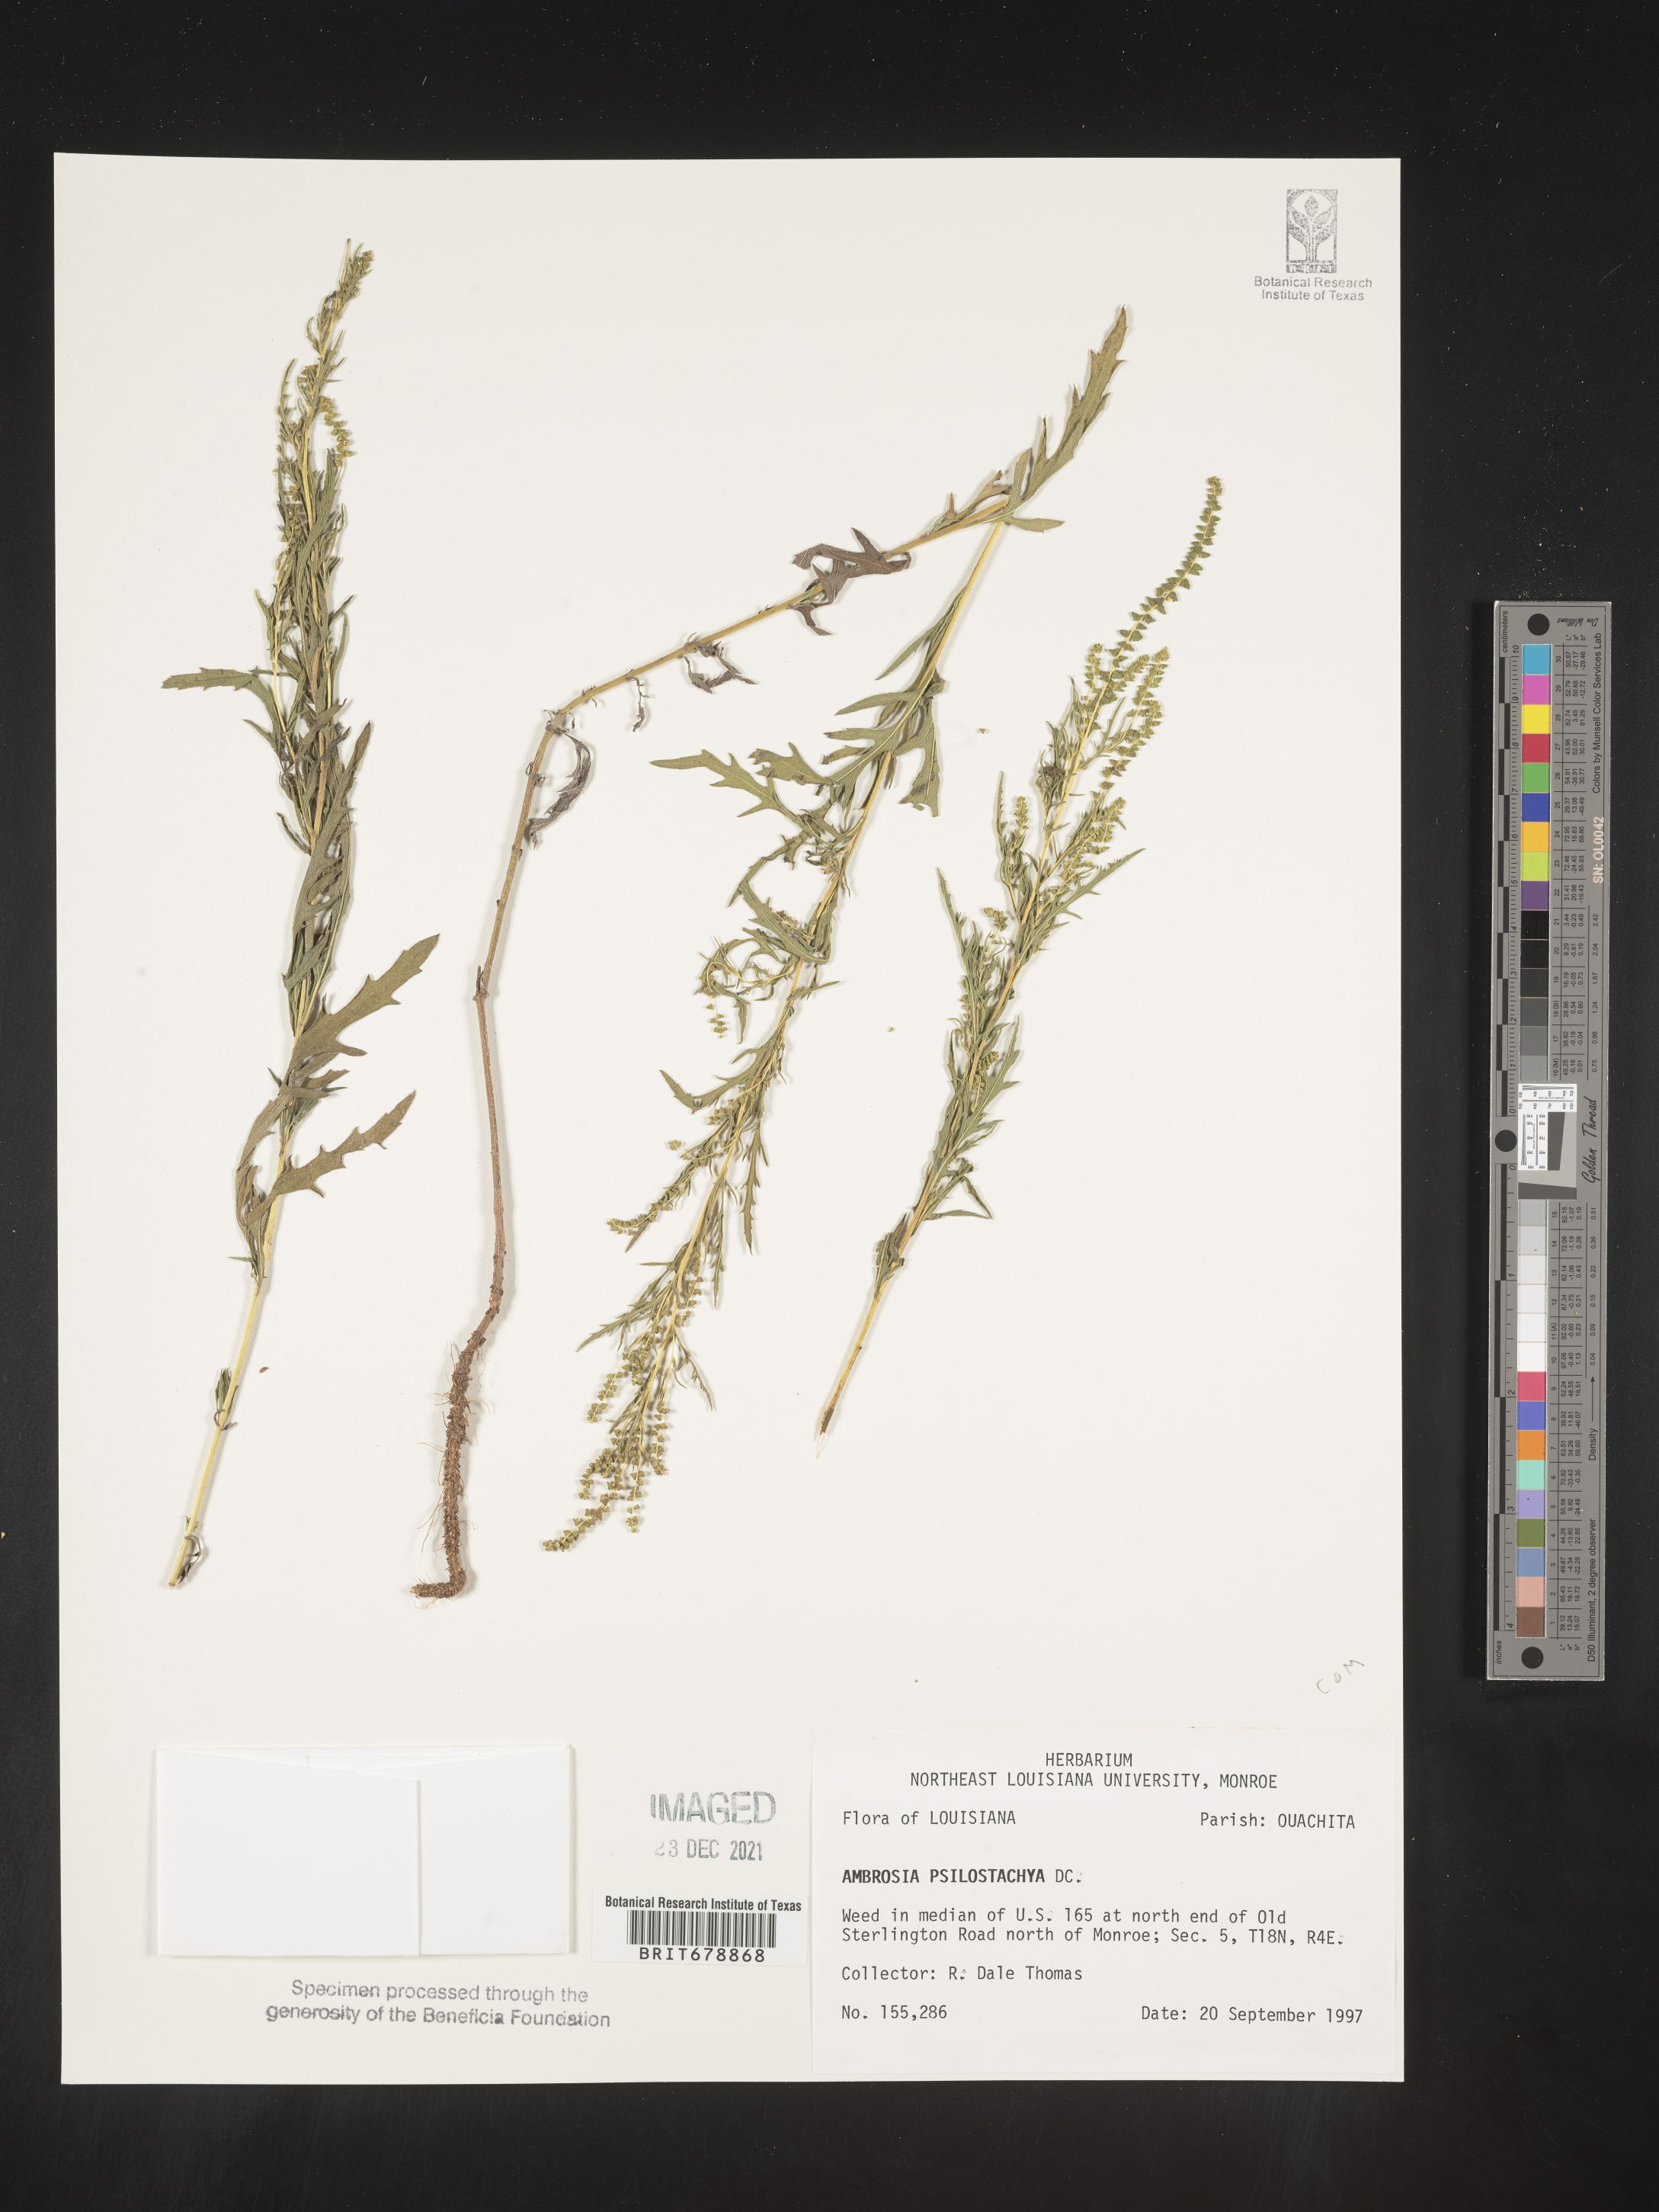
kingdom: Plantae
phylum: Tracheophyta
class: Magnoliopsida
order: Asterales
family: Asteraceae
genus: Ambrosia
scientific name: Ambrosia psilostachya
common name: Perennial ragweed
